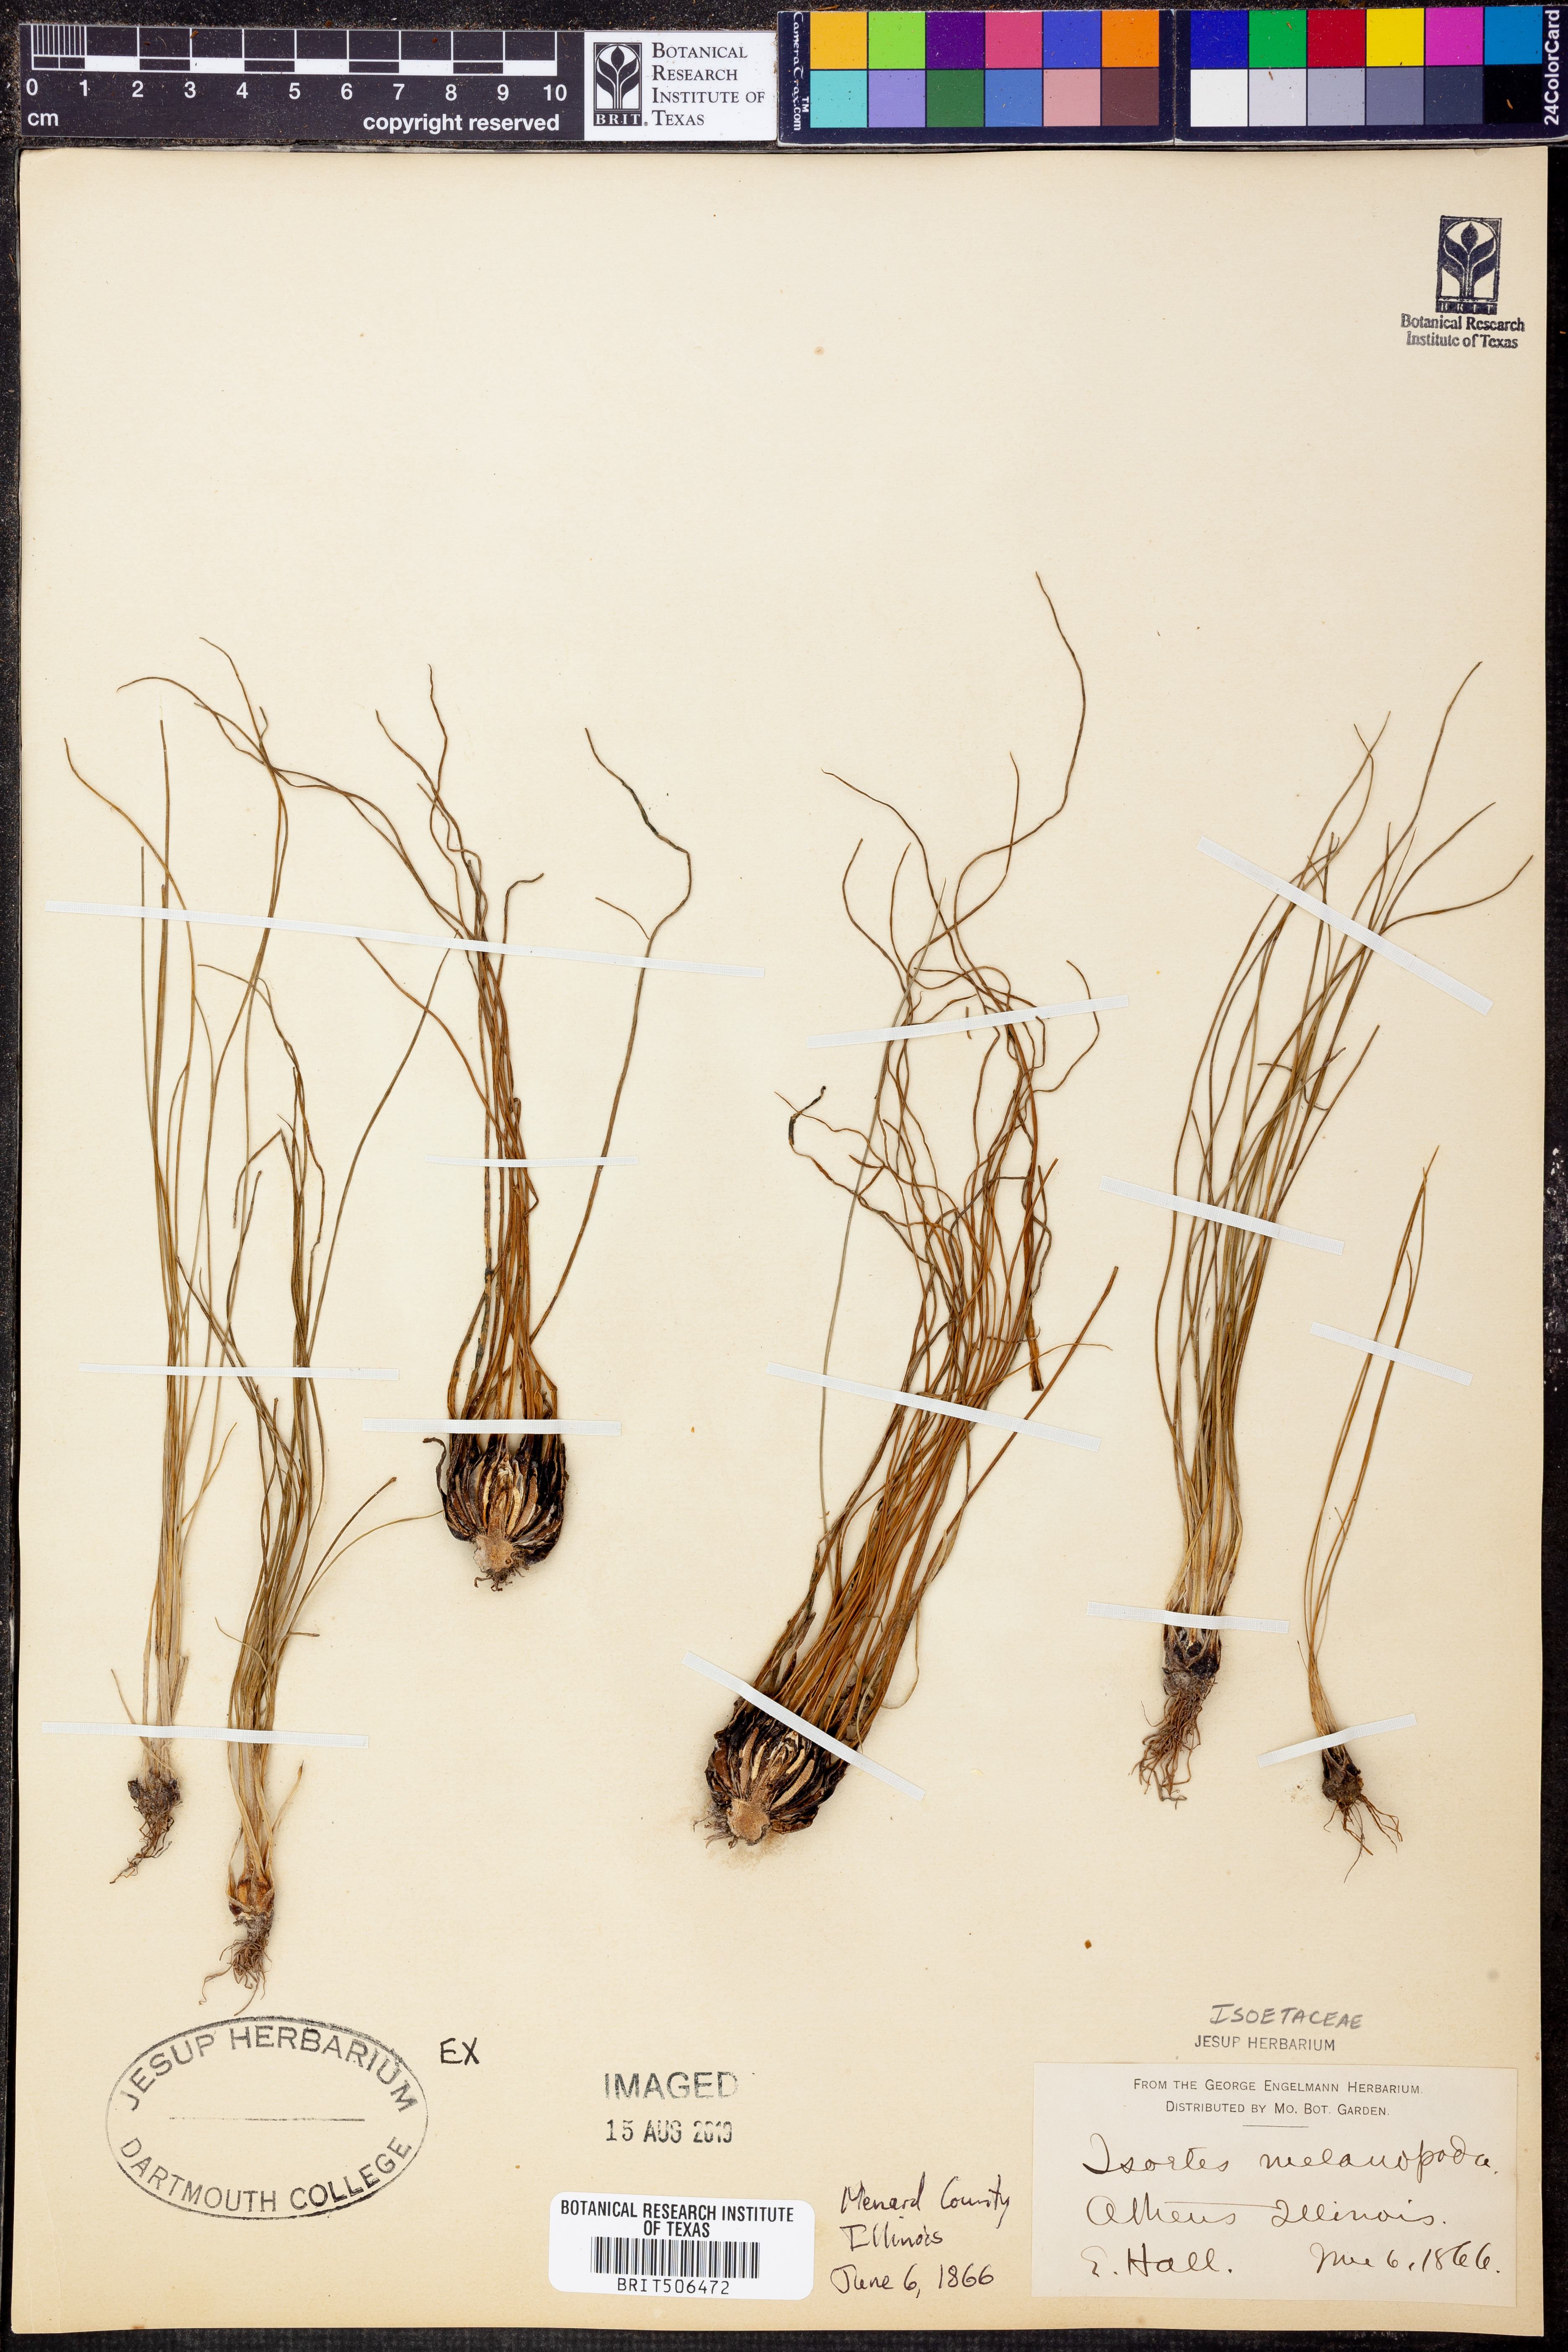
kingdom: Plantae
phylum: Tracheophyta
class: Lycopodiopsida
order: Isoetales
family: Isoetaceae
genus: Isoetes
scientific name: Isoetes melanopoda
